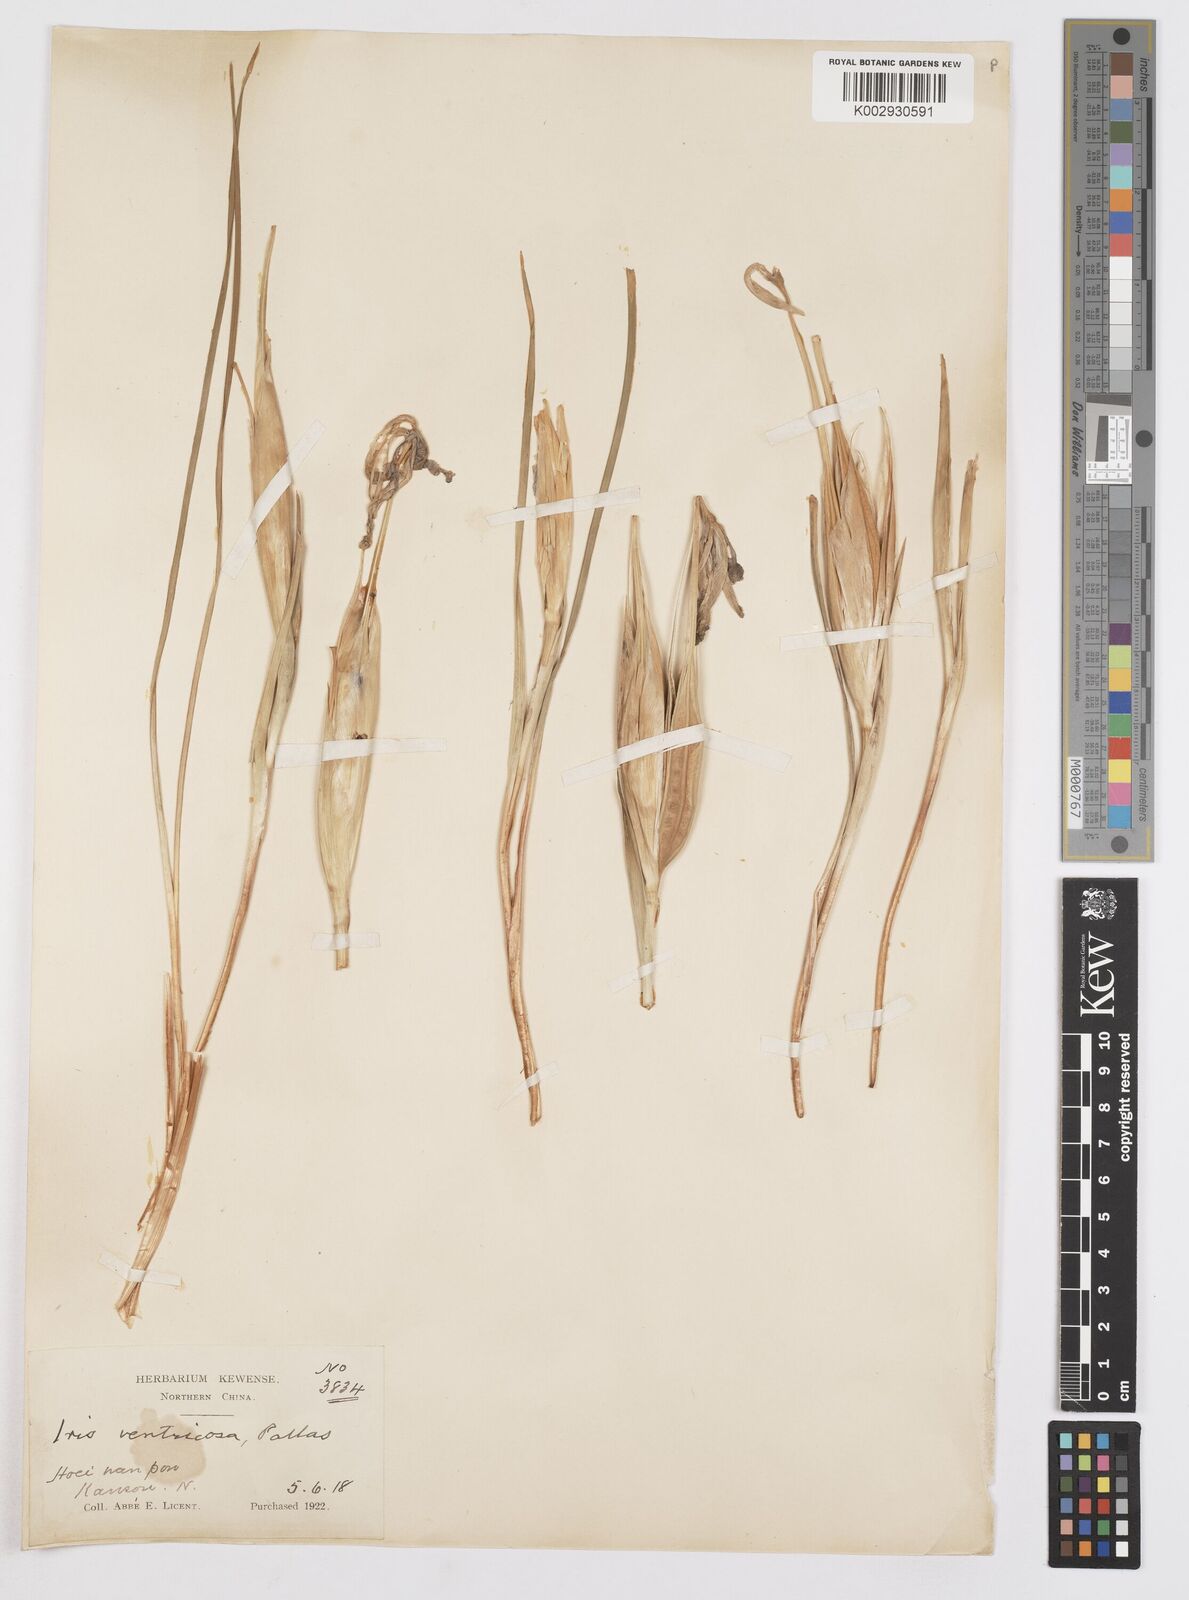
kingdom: Plantae
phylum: Tracheophyta
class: Liliopsida
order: Asparagales
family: Iridaceae
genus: Iris
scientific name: Iris ventricosa
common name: Purple-flower iris
